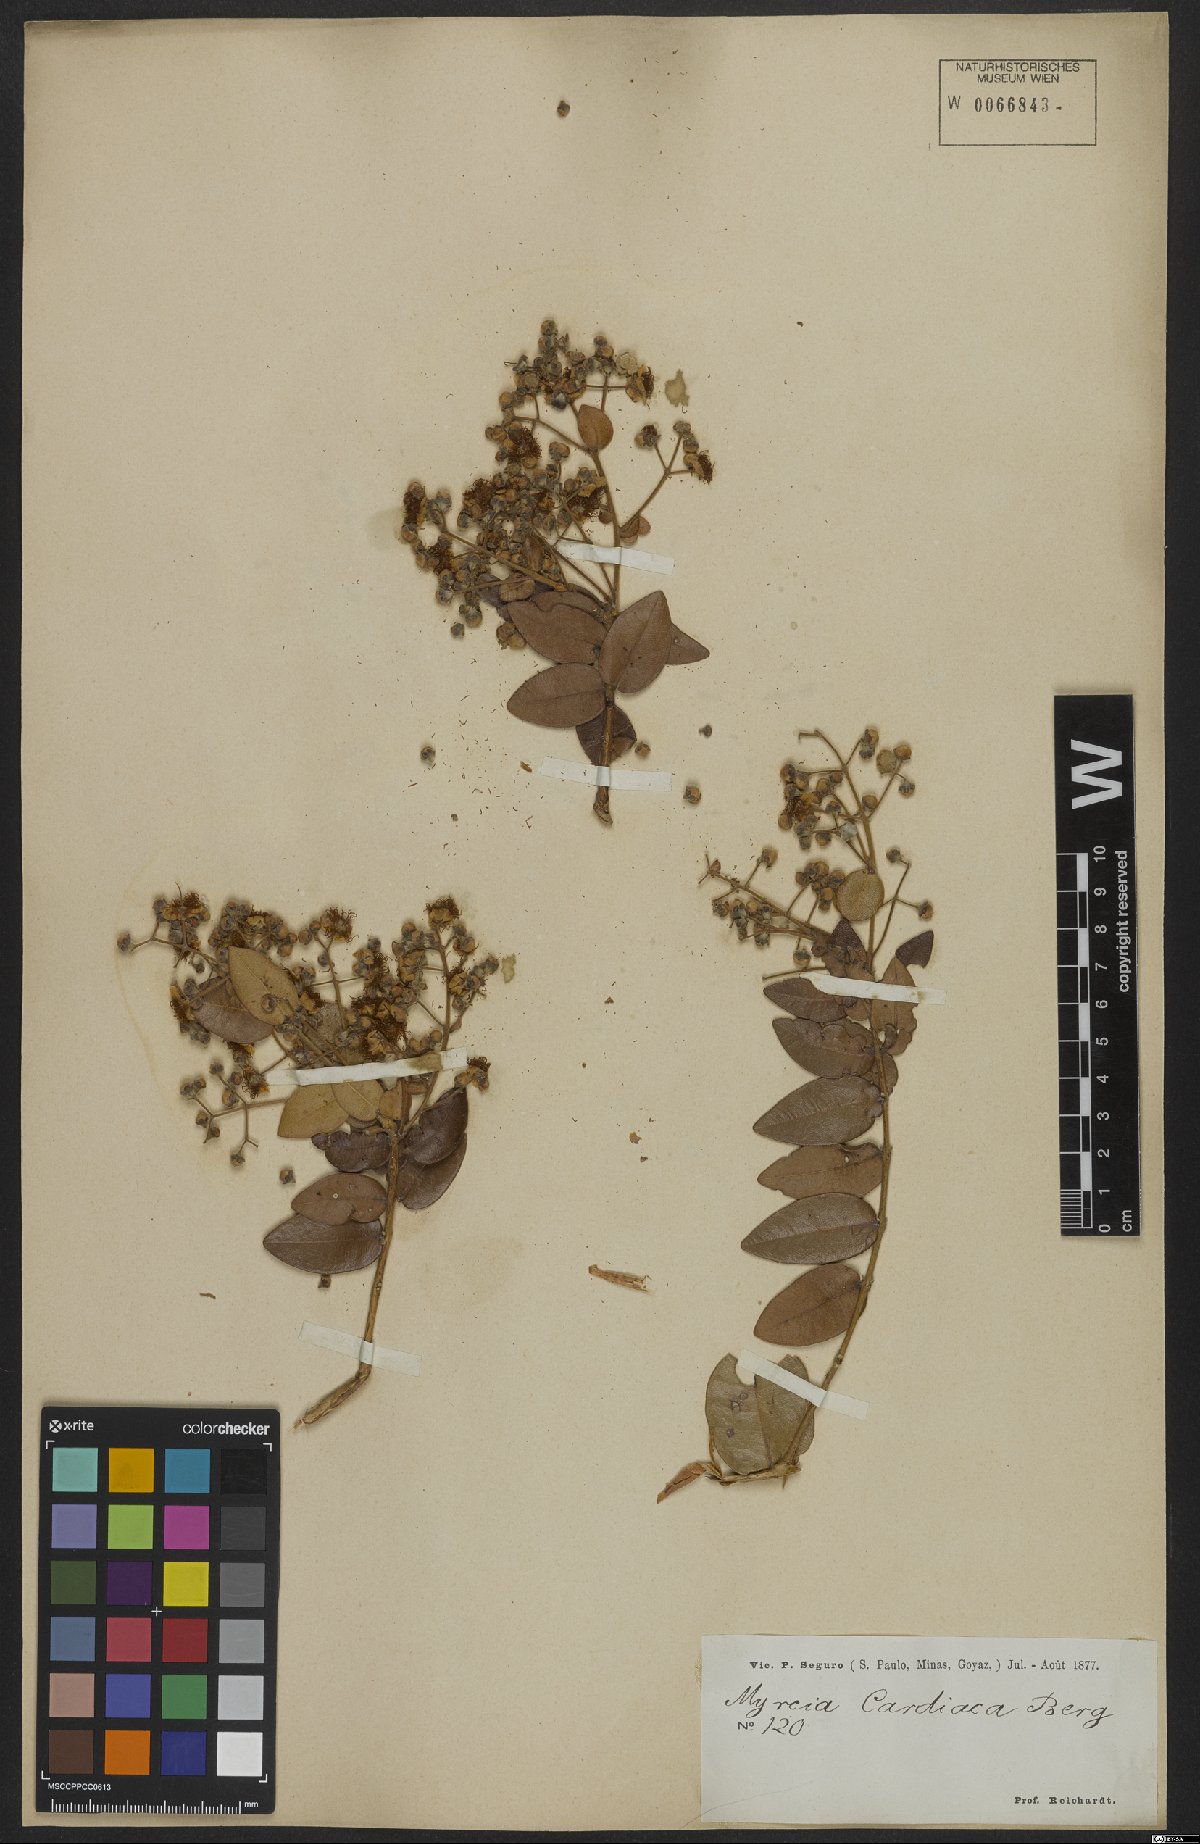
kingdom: Plantae
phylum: Tracheophyta
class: Magnoliopsida
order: Myrtales
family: Myrtaceae
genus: Myrcia
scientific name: Myrcia cardiaca
